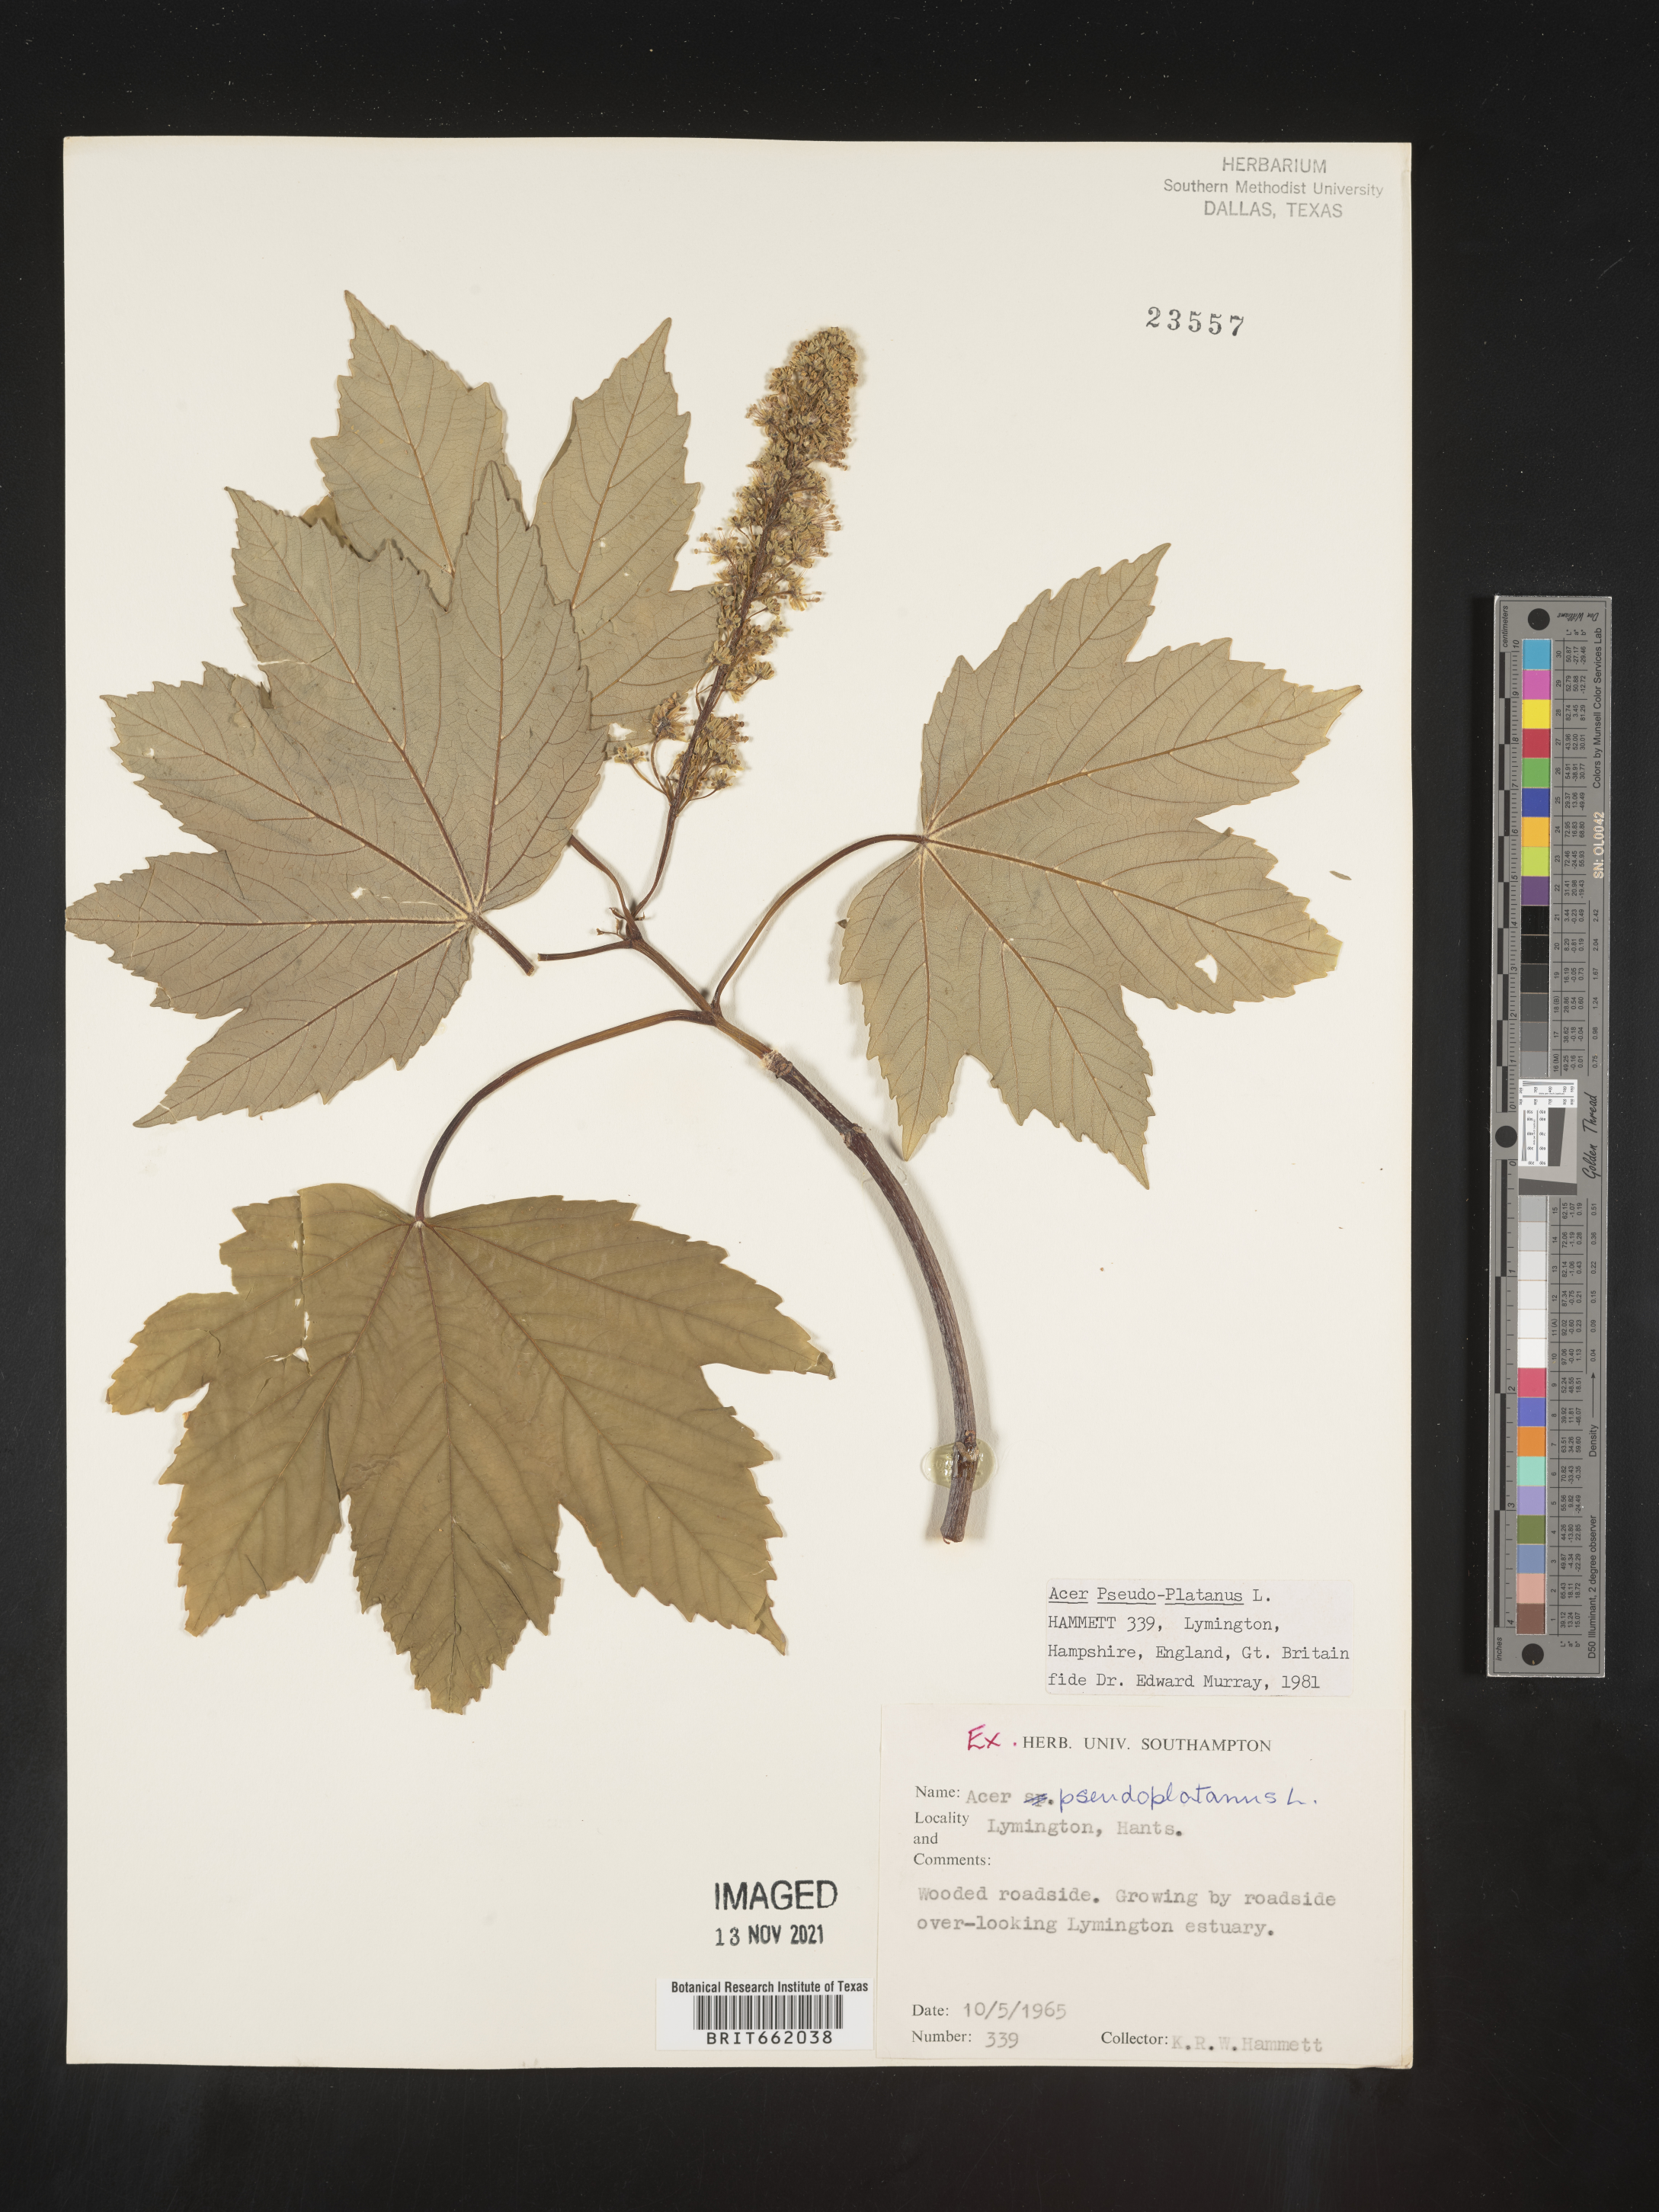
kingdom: Plantae
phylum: Tracheophyta
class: Magnoliopsida
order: Sapindales
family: Sapindaceae
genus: Acer
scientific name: Acer
